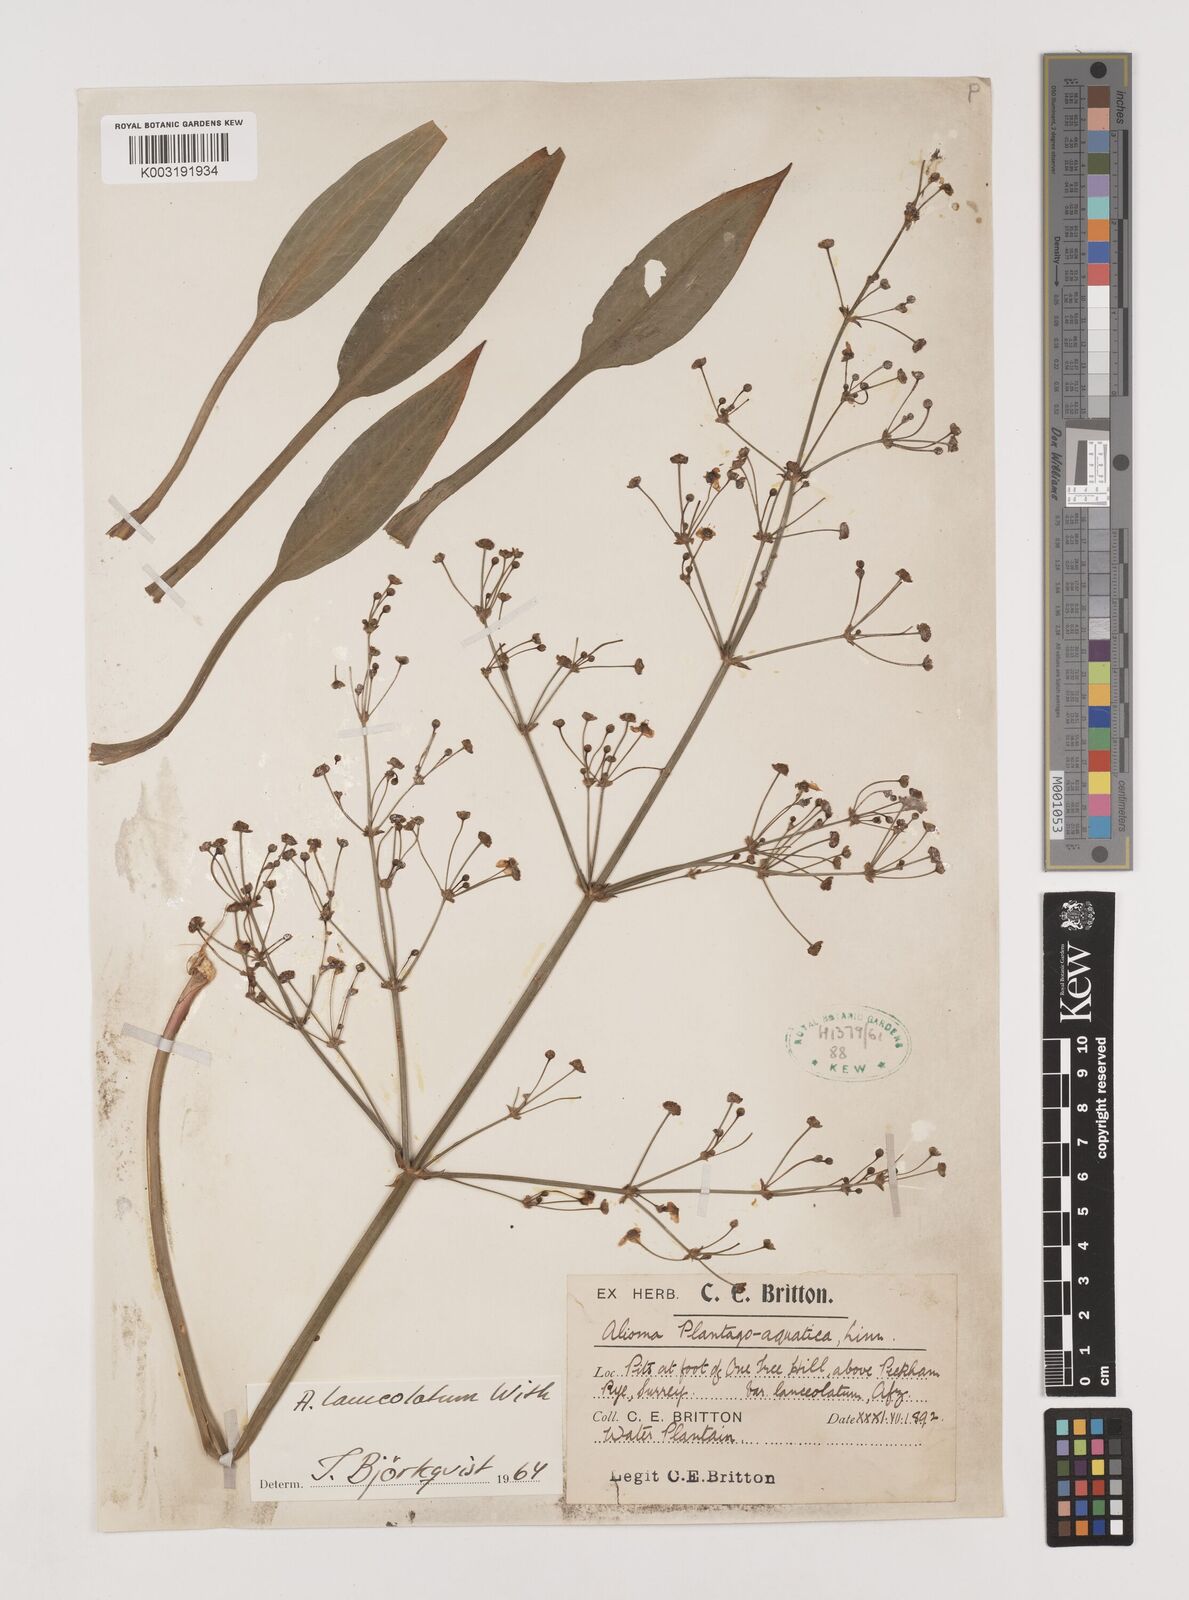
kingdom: Plantae
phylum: Tracheophyta
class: Liliopsida
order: Alismatales
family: Alismataceae
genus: Alisma
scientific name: Alisma lanceolatum
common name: Narrow-leaved water-plantain
